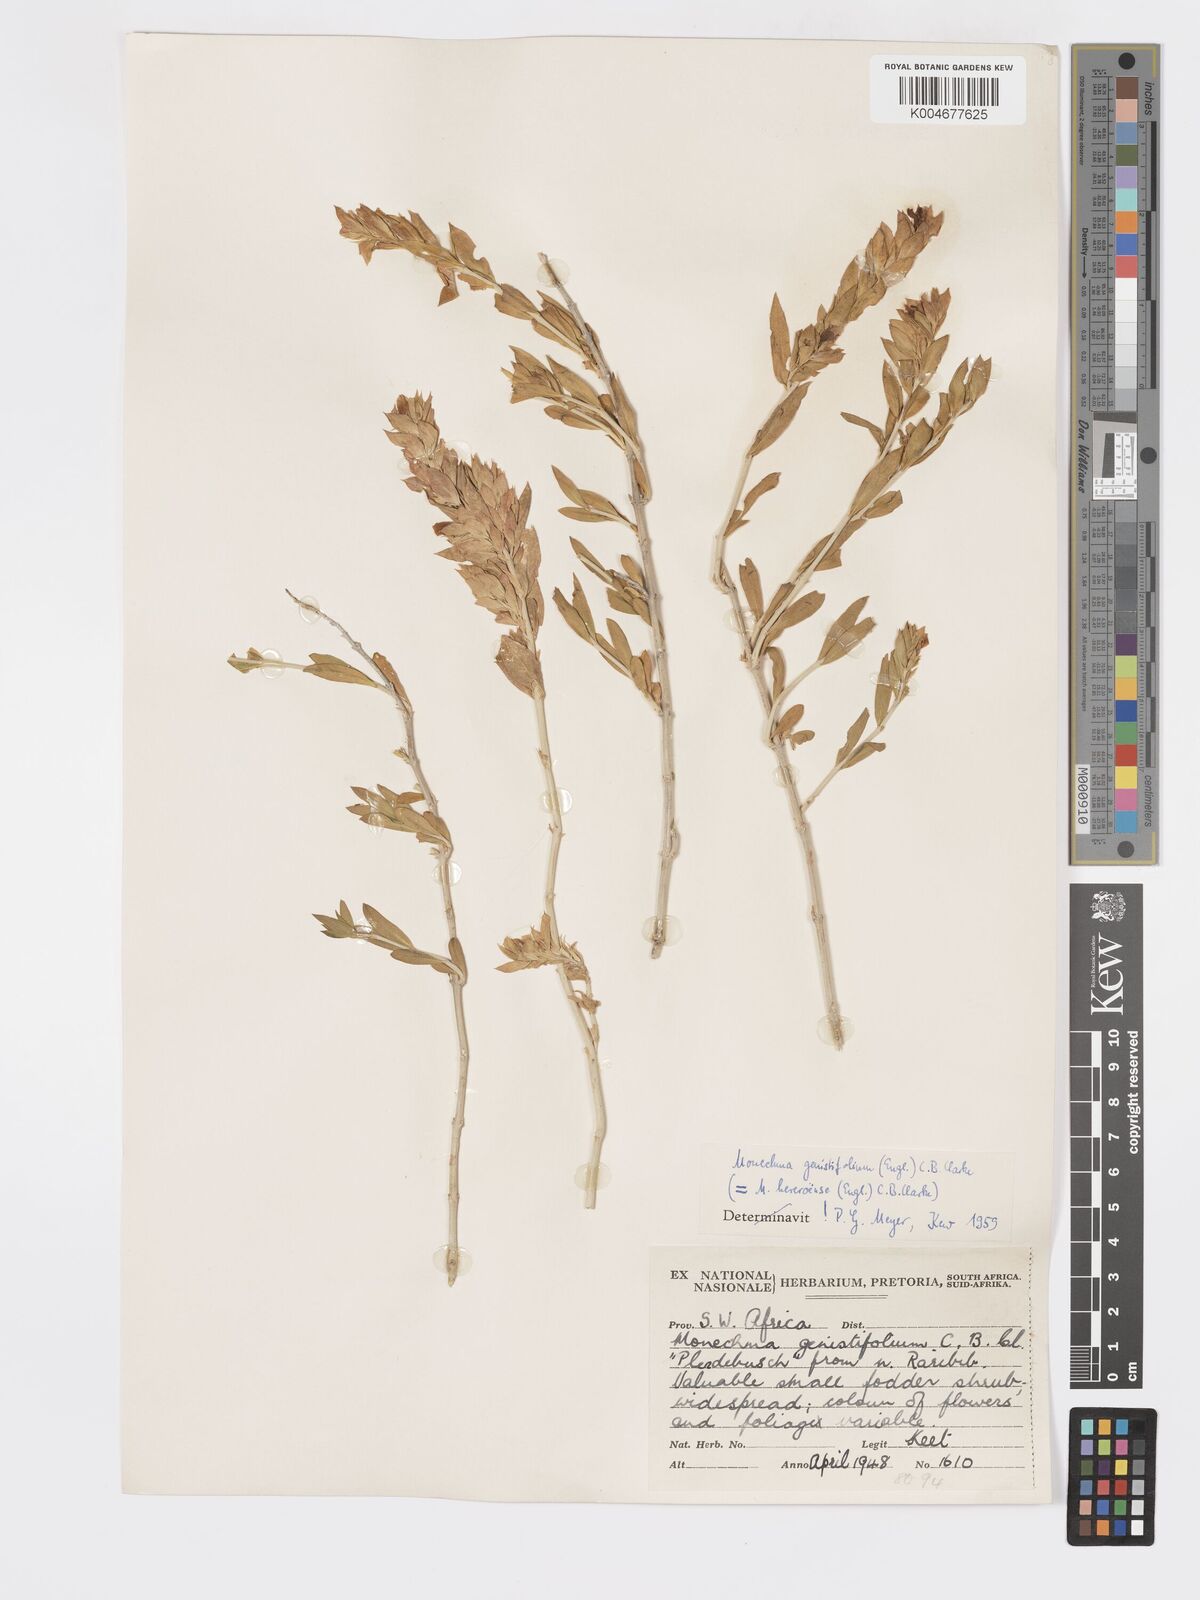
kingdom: Plantae
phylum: Tracheophyta
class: Magnoliopsida
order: Lamiales
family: Acanthaceae
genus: Pogonospermum
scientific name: Pogonospermum
